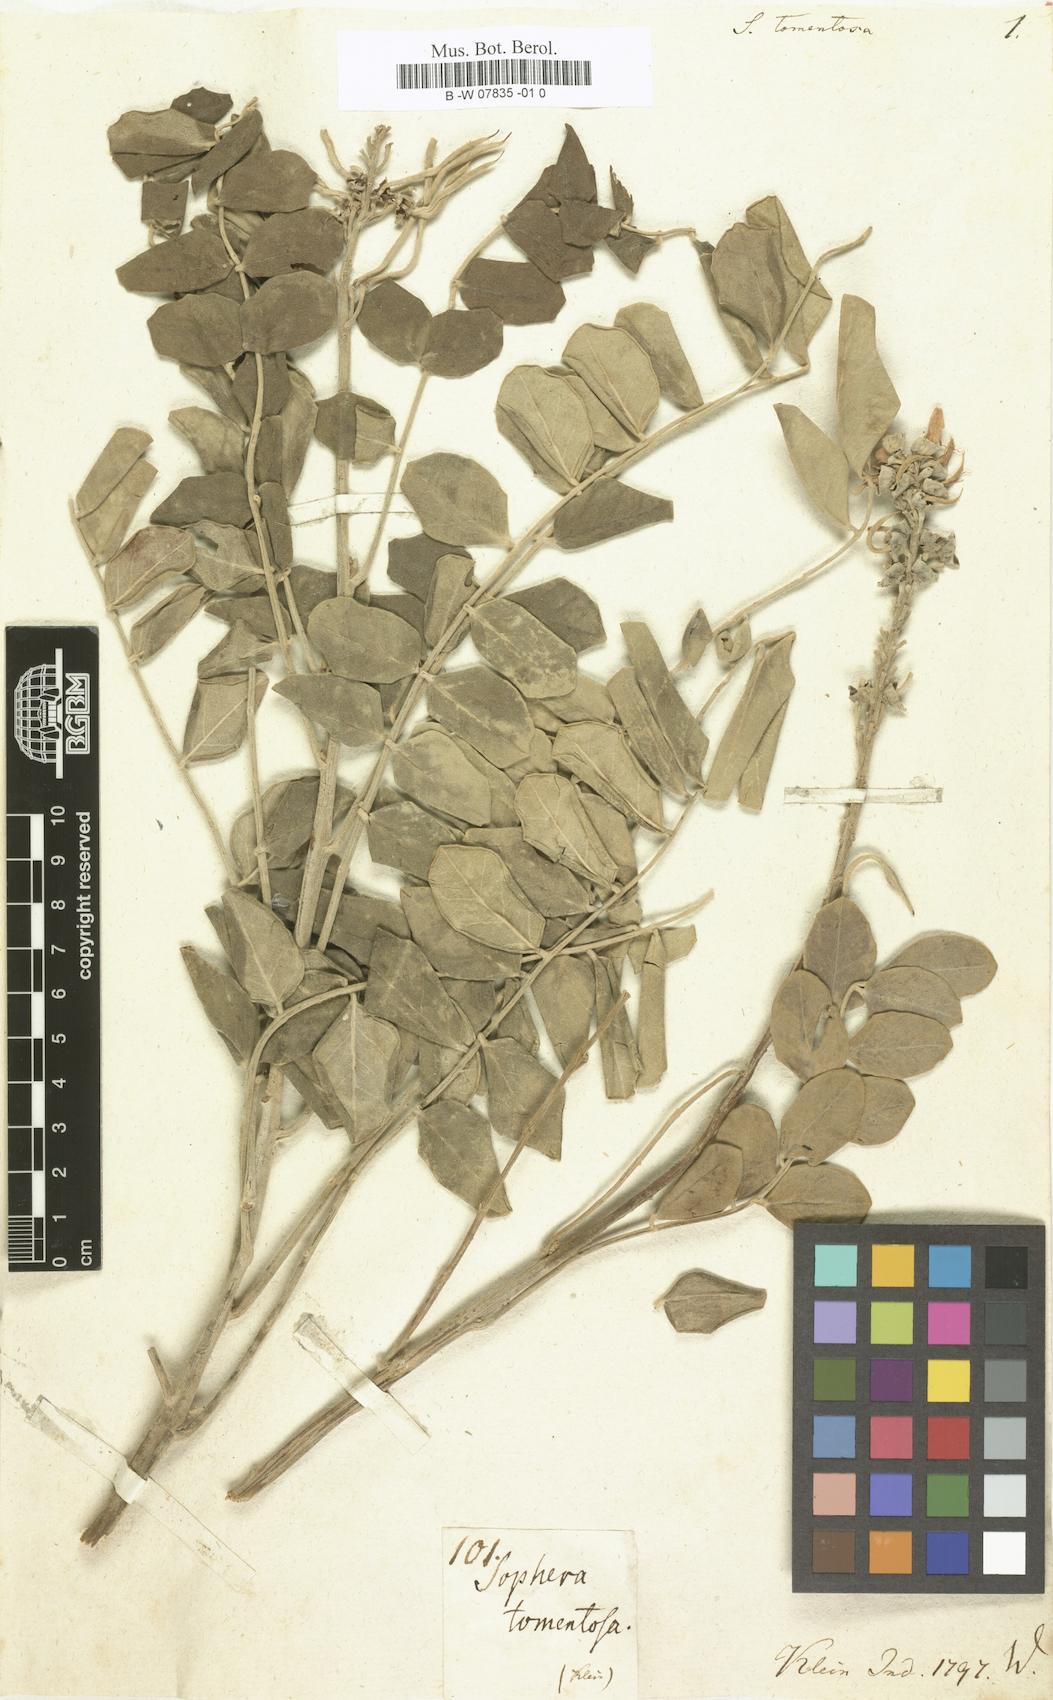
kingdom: Plantae
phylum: Tracheophyta
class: Magnoliopsida
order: Fabales
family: Fabaceae
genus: Sophora
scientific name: Sophora tomentosa
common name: Yellow necklacepod
